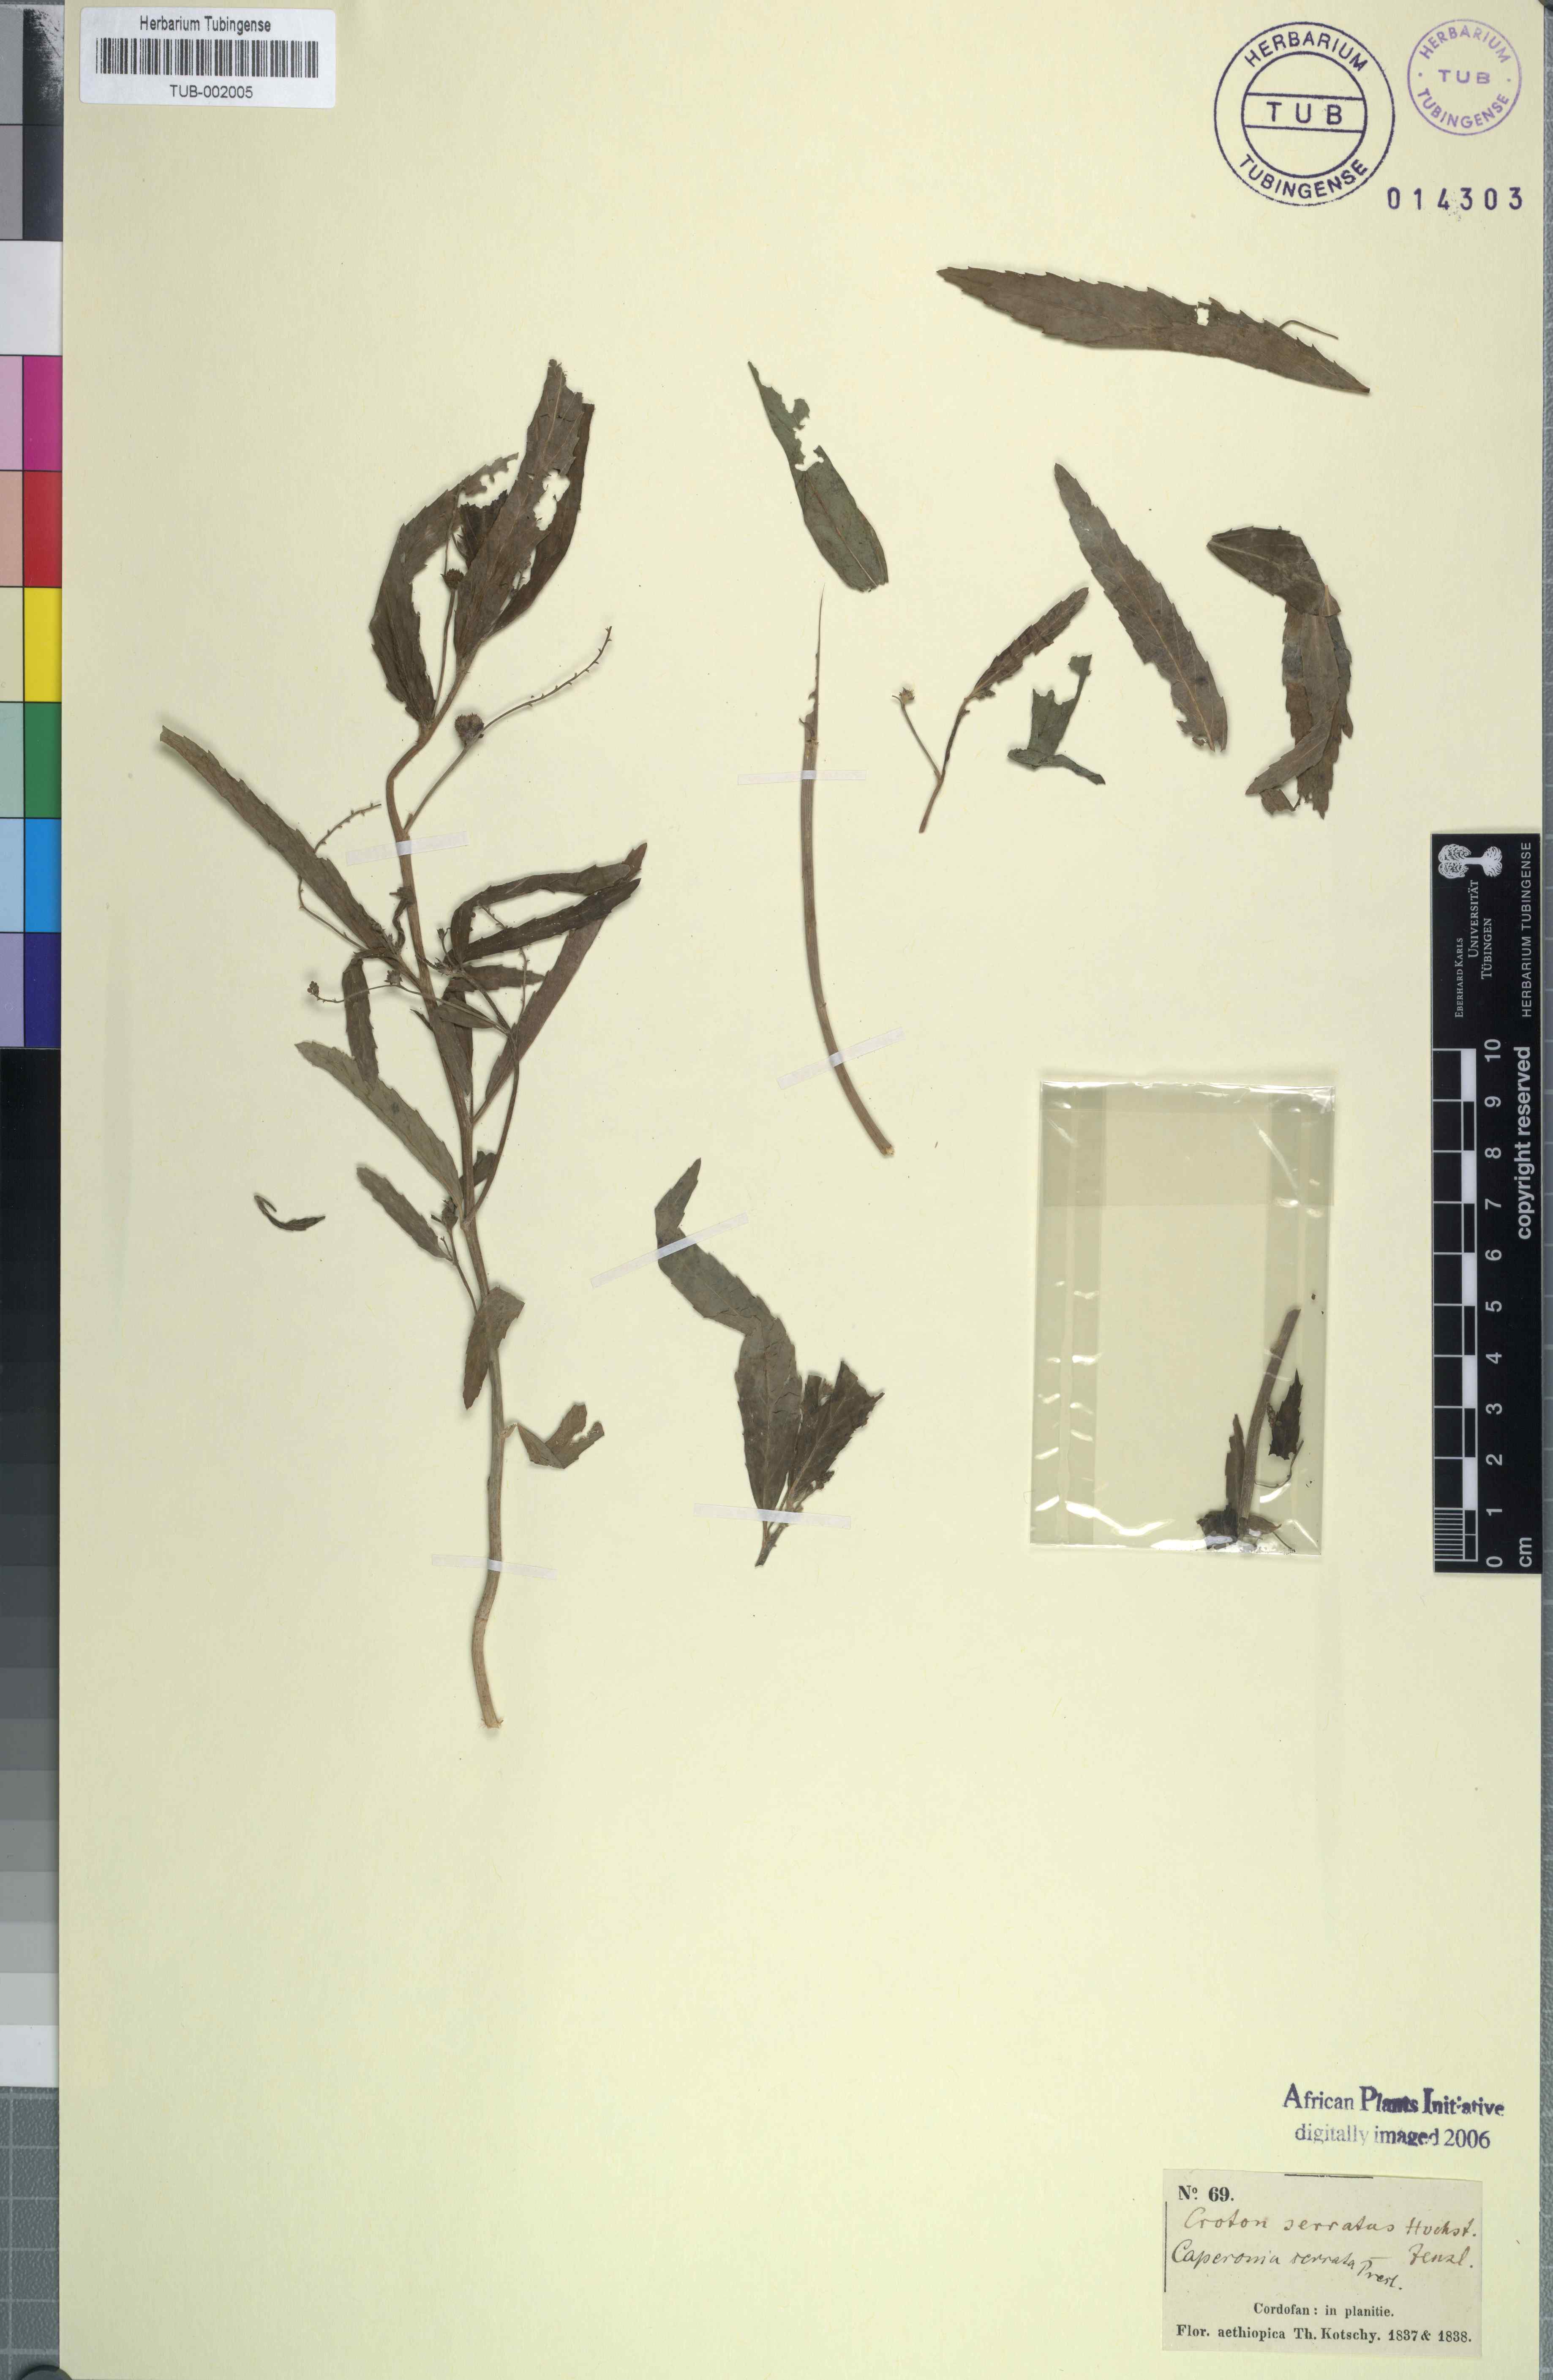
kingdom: Plantae
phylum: Tracheophyta
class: Magnoliopsida
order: Malpighiales
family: Euphorbiaceae
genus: Caperonia
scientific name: Caperonia serrata
